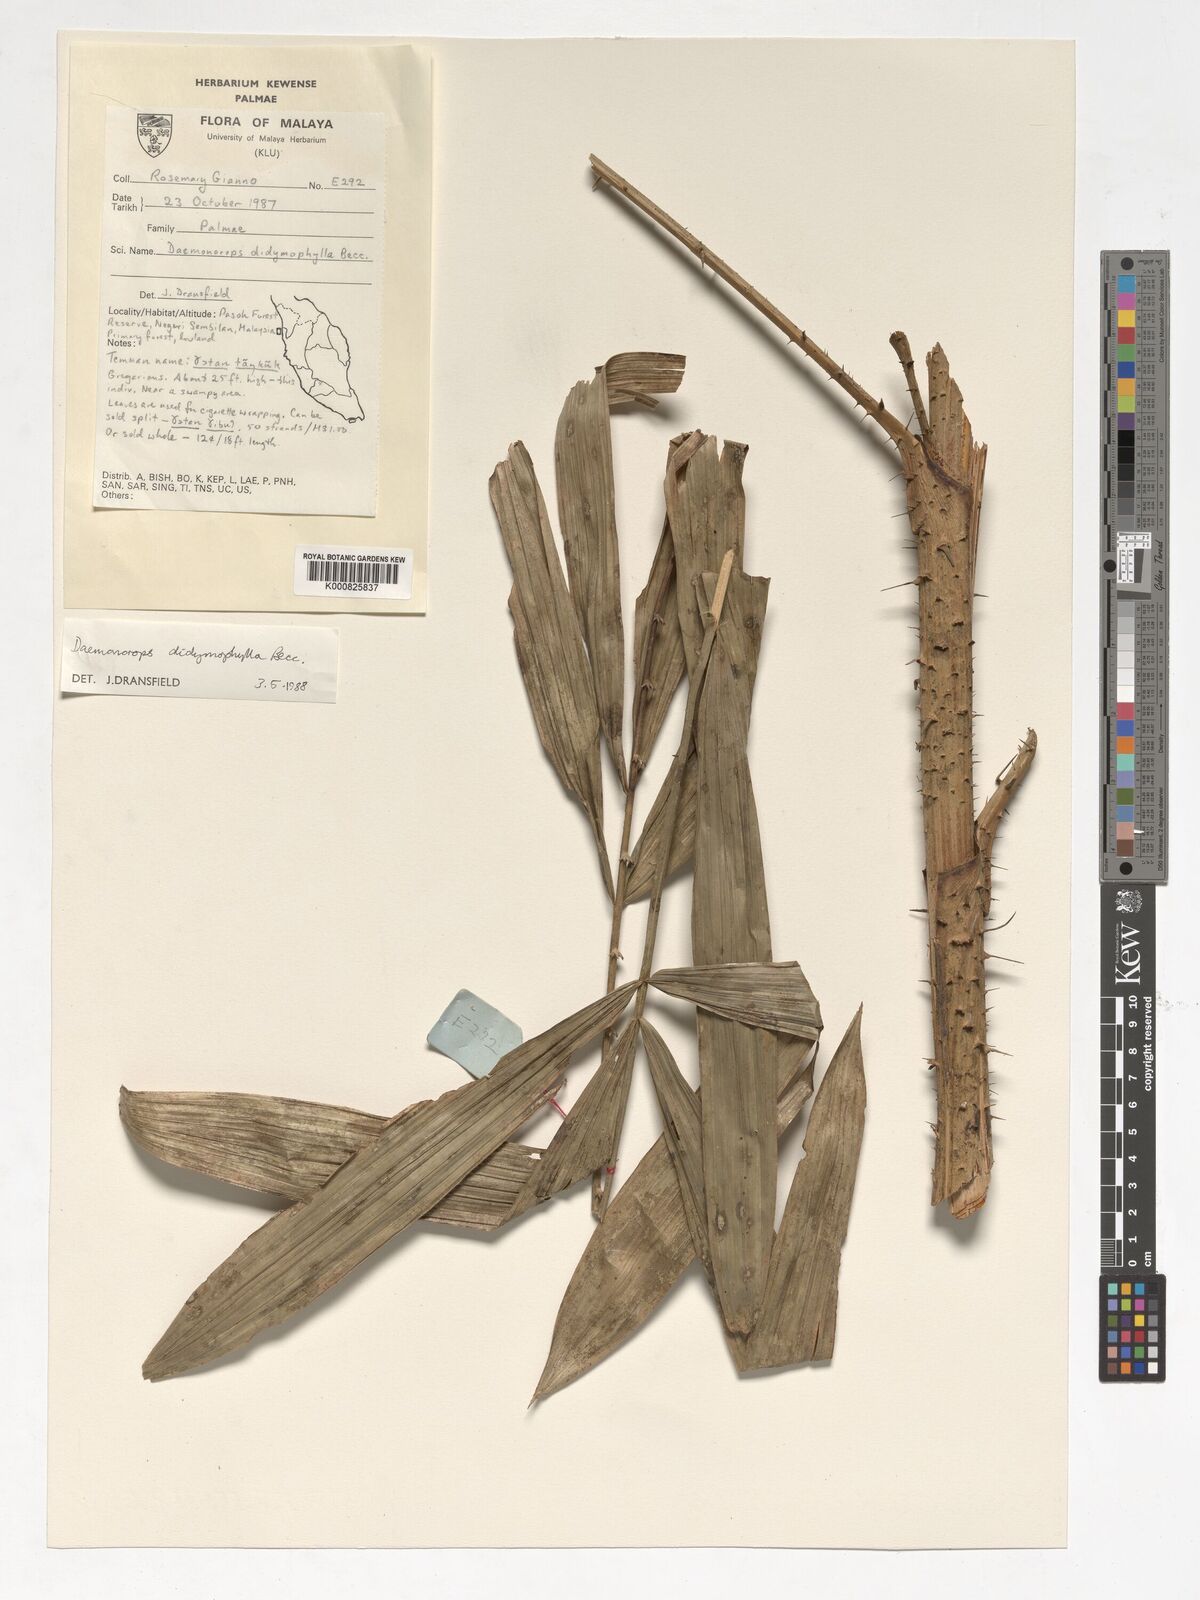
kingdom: Plantae
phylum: Tracheophyta
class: Liliopsida
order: Arecales
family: Arecaceae
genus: Calamus
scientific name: Calamus gracilipes
